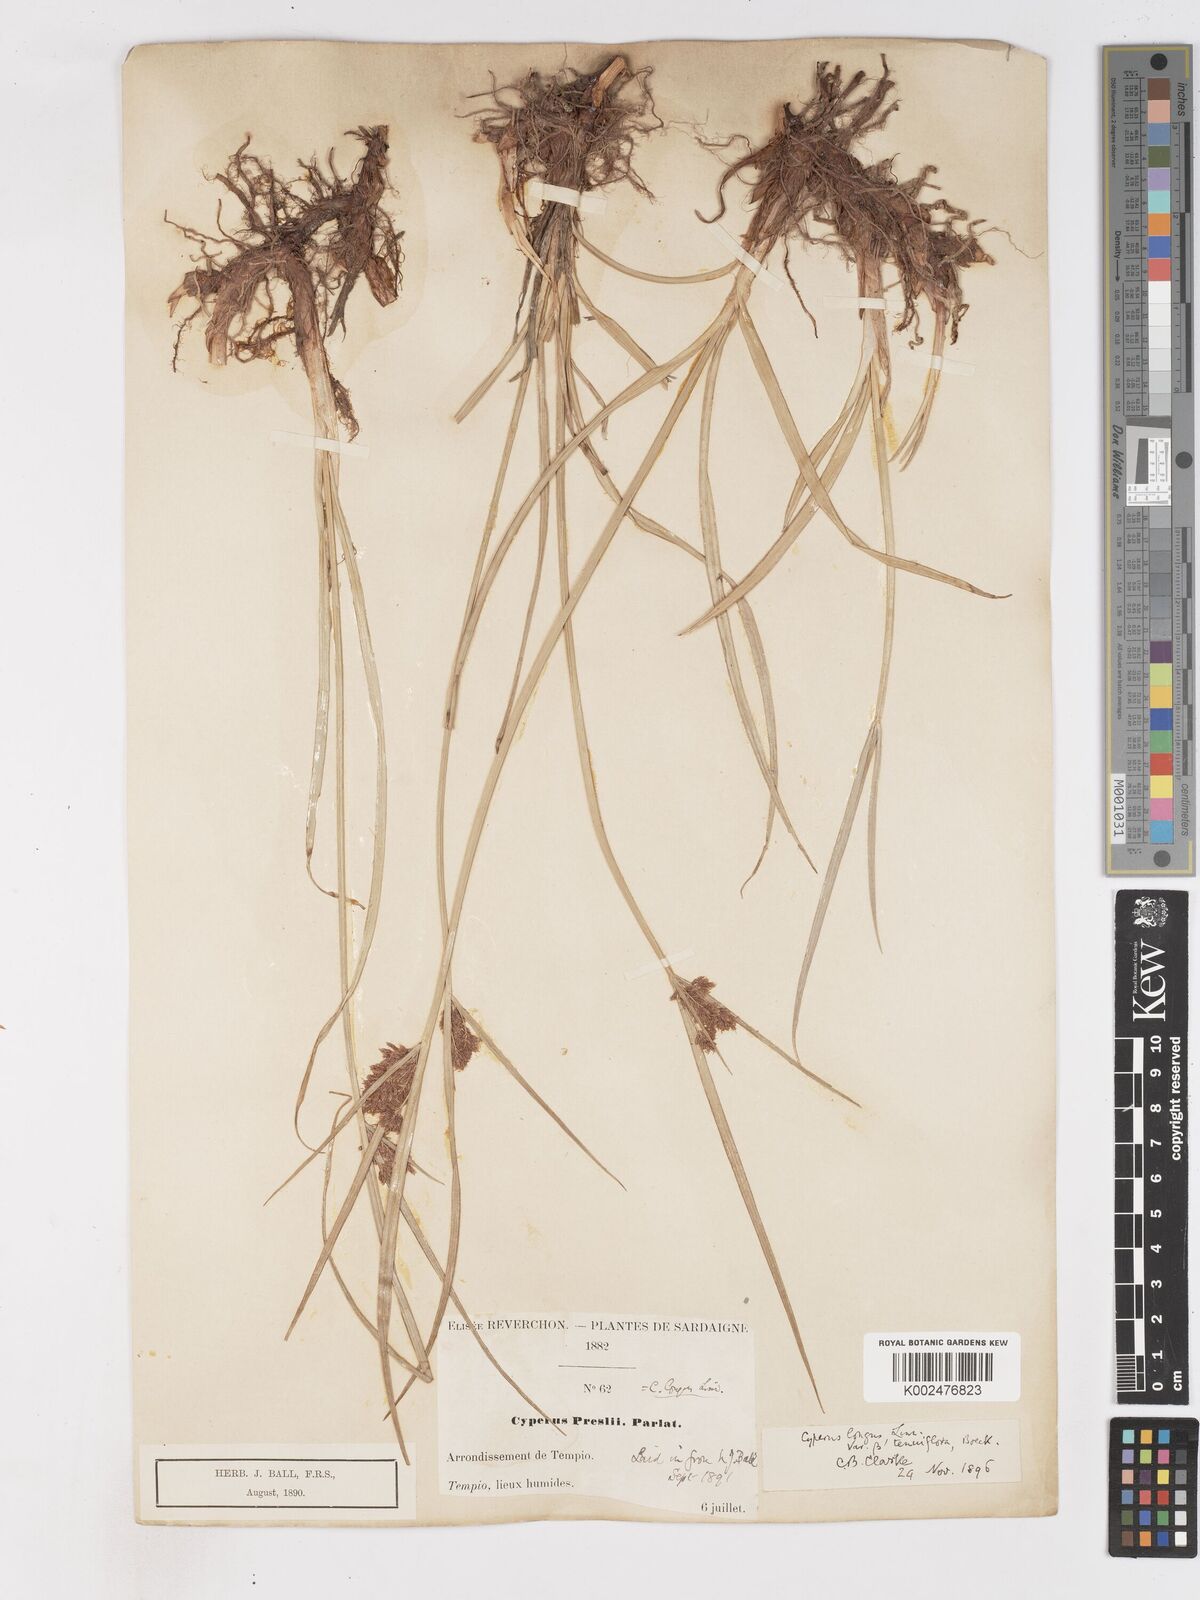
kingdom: Plantae
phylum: Tracheophyta
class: Liliopsida
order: Poales
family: Cyperaceae
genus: Cyperus
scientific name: Cyperus longus
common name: Galingale
